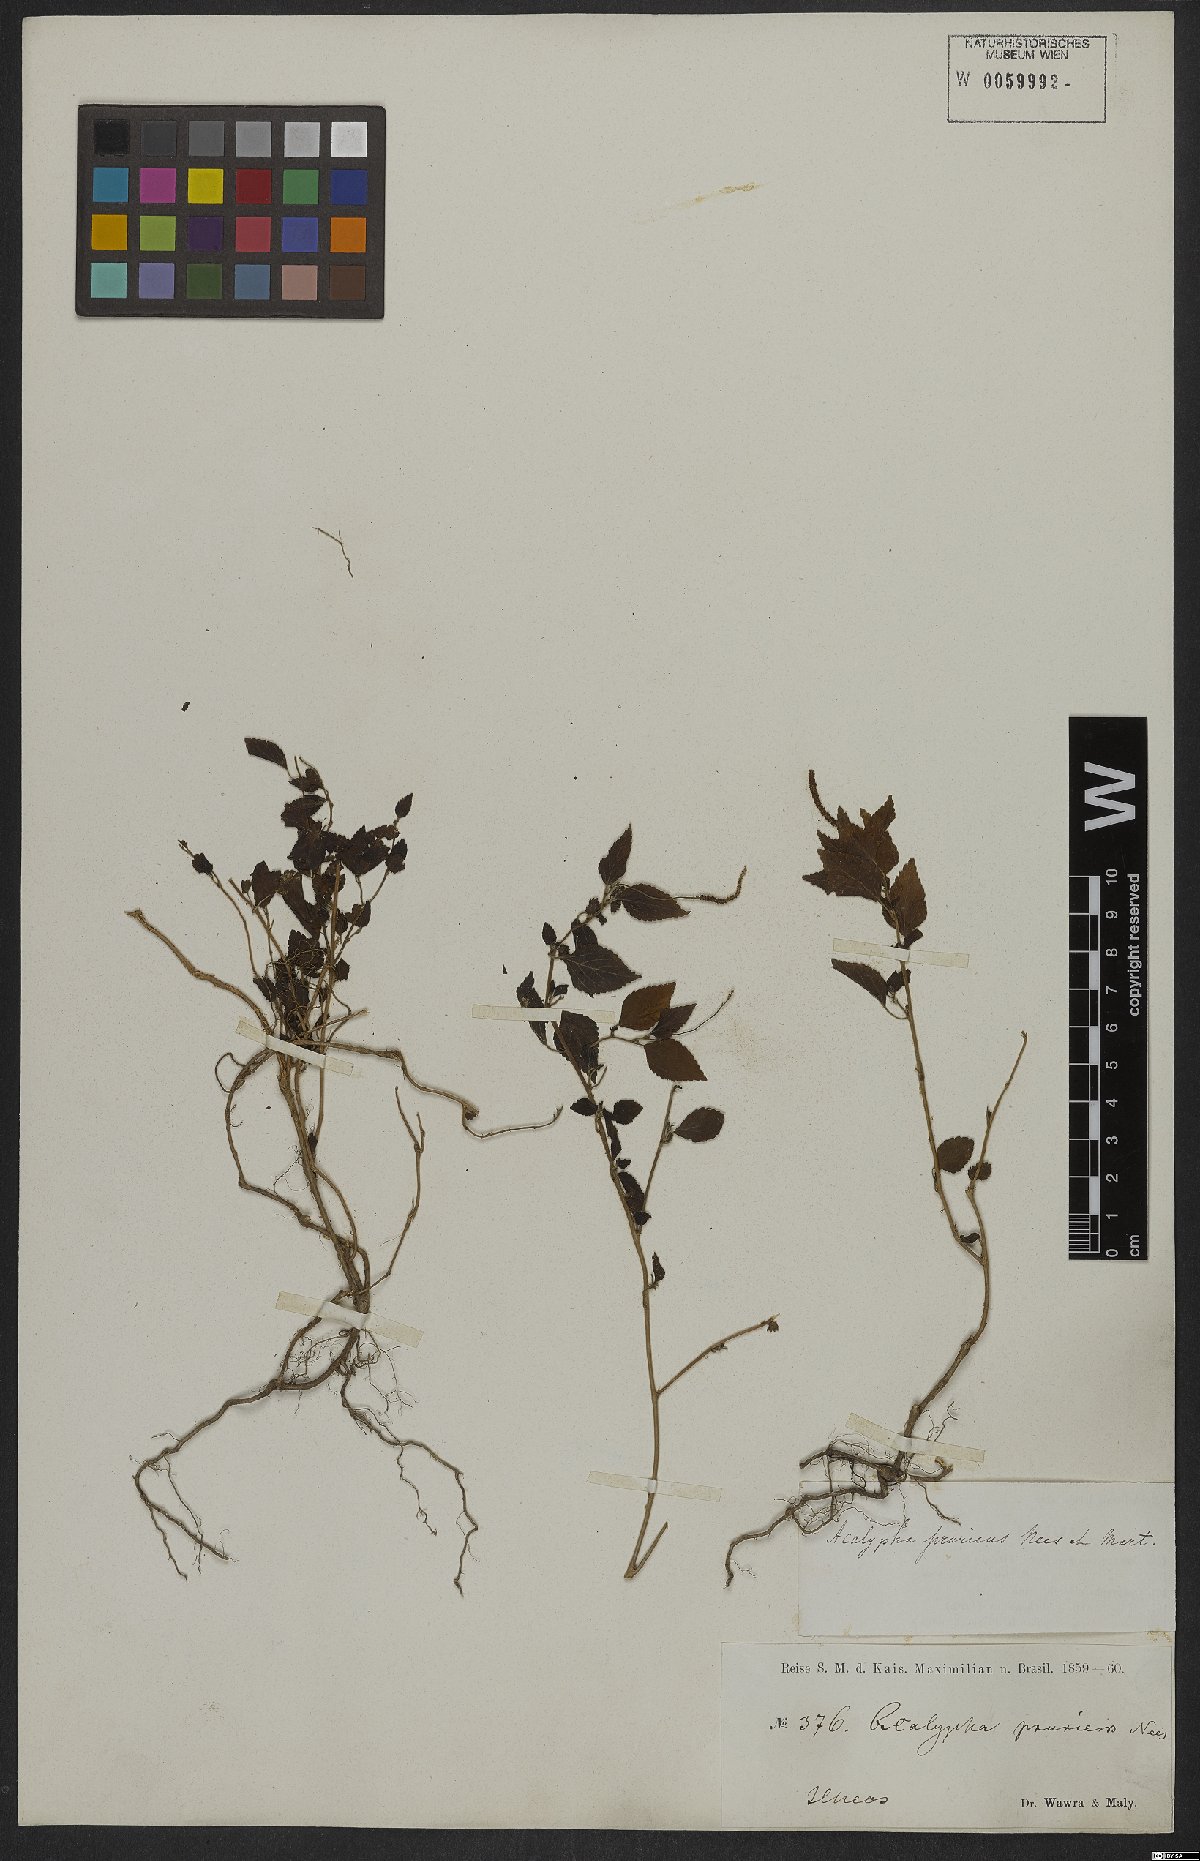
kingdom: Plantae
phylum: Tracheophyta
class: Magnoliopsida
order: Malpighiales
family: Euphorbiaceae
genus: Acalypha
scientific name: Acalypha pruriens
